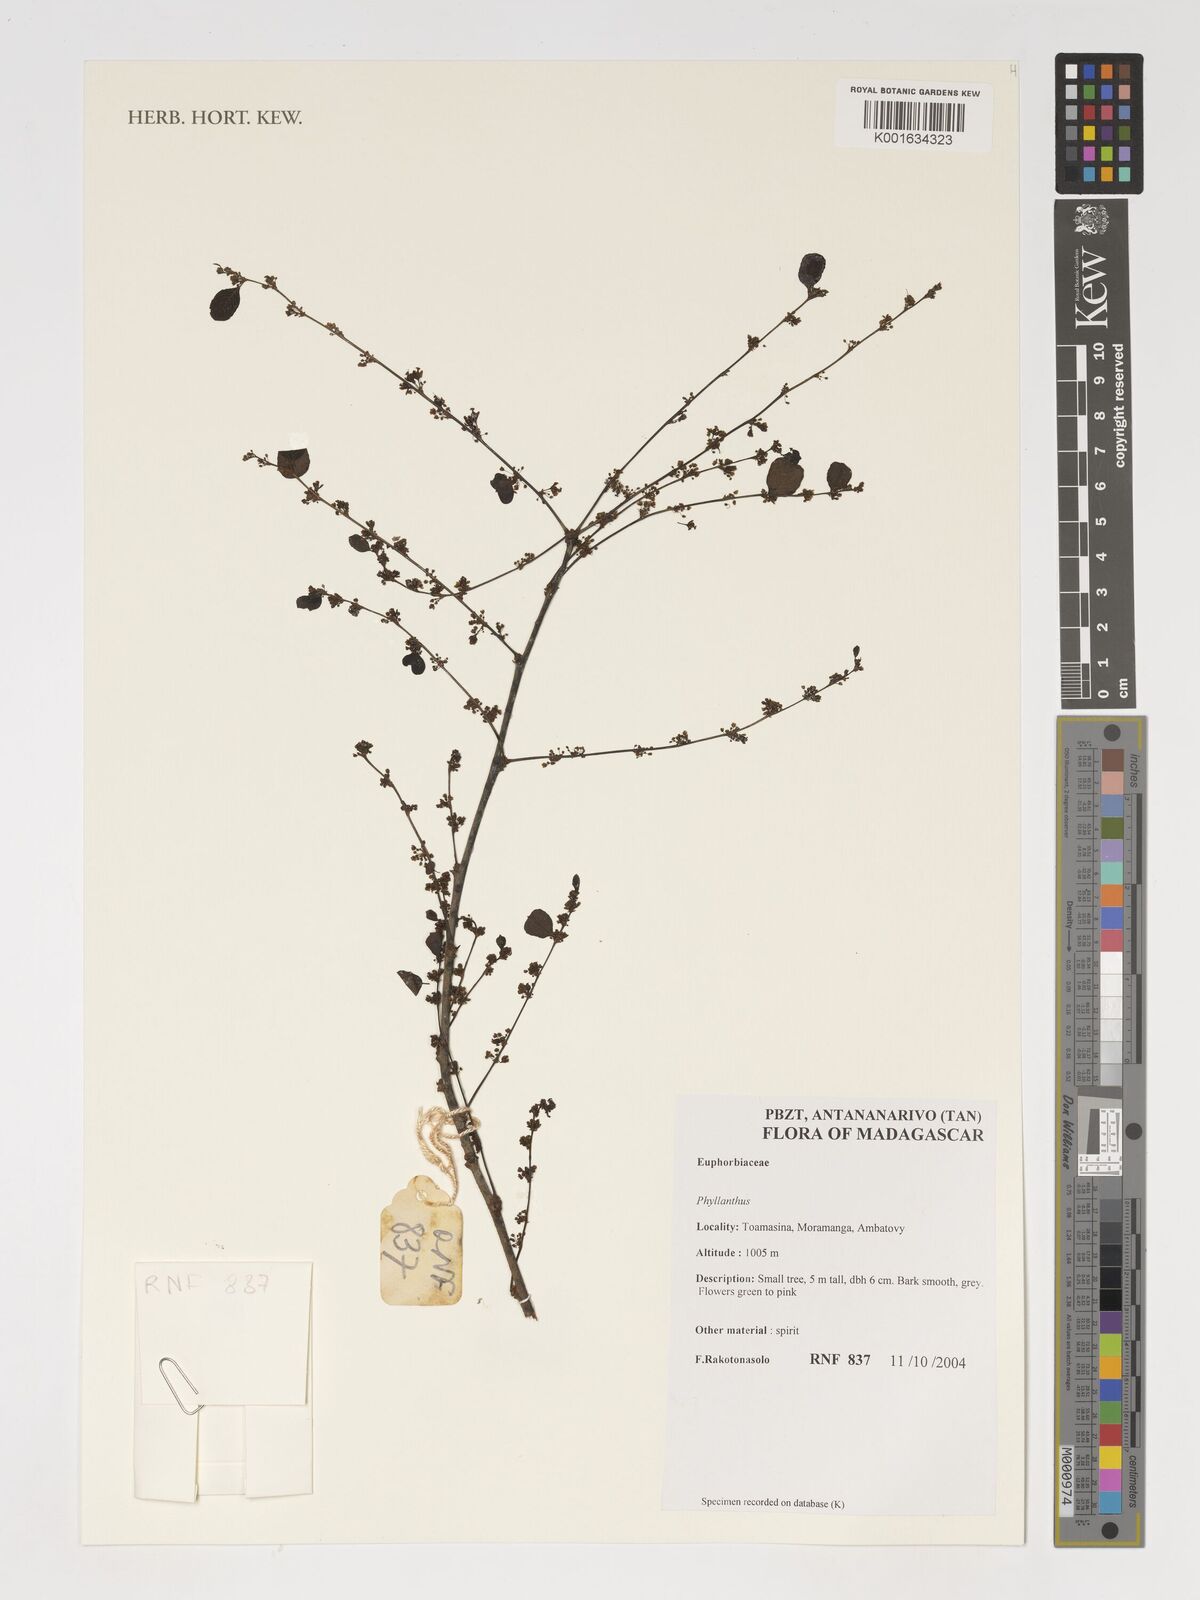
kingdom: Plantae
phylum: Tracheophyta
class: Magnoliopsida
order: Malpighiales
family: Phyllanthaceae
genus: Phyllanthus
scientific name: Phyllanthus
